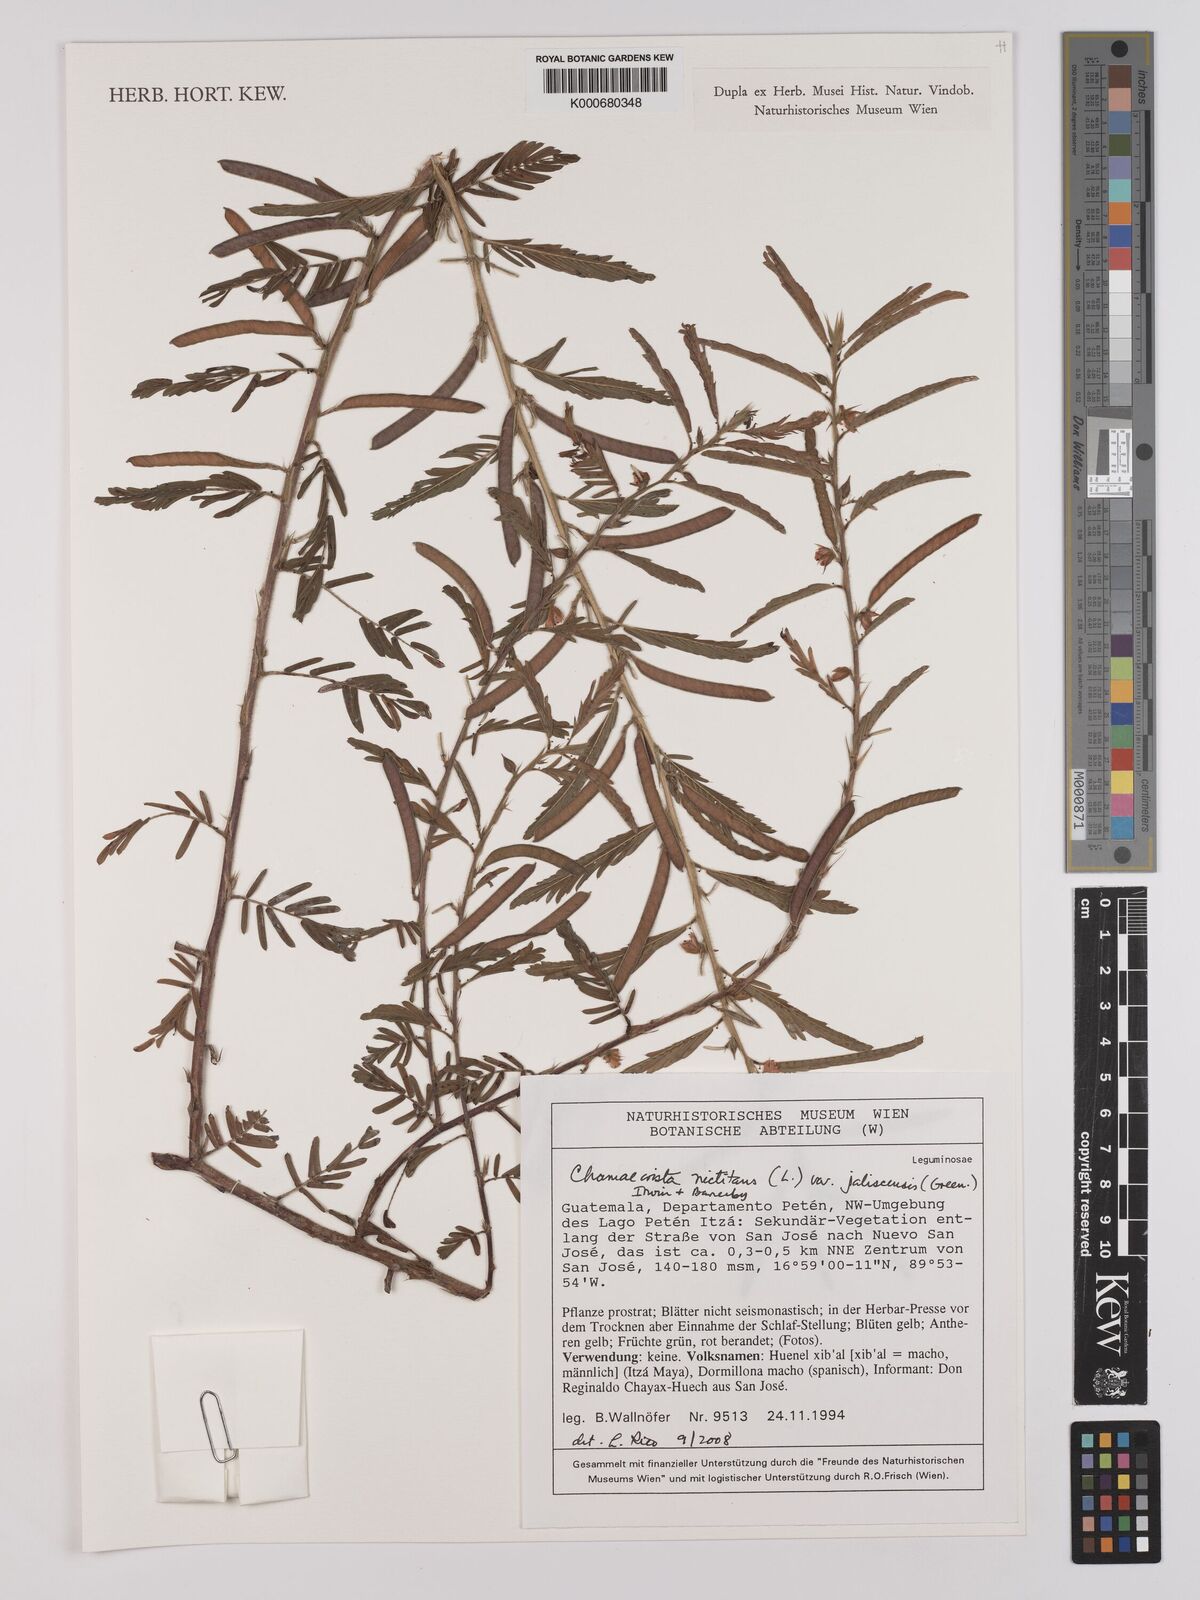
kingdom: Plantae
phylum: Tracheophyta
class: Magnoliopsida
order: Fabales
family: Fabaceae
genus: Chamaecrista
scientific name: Chamaecrista nictitans
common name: Sensitive cassia
